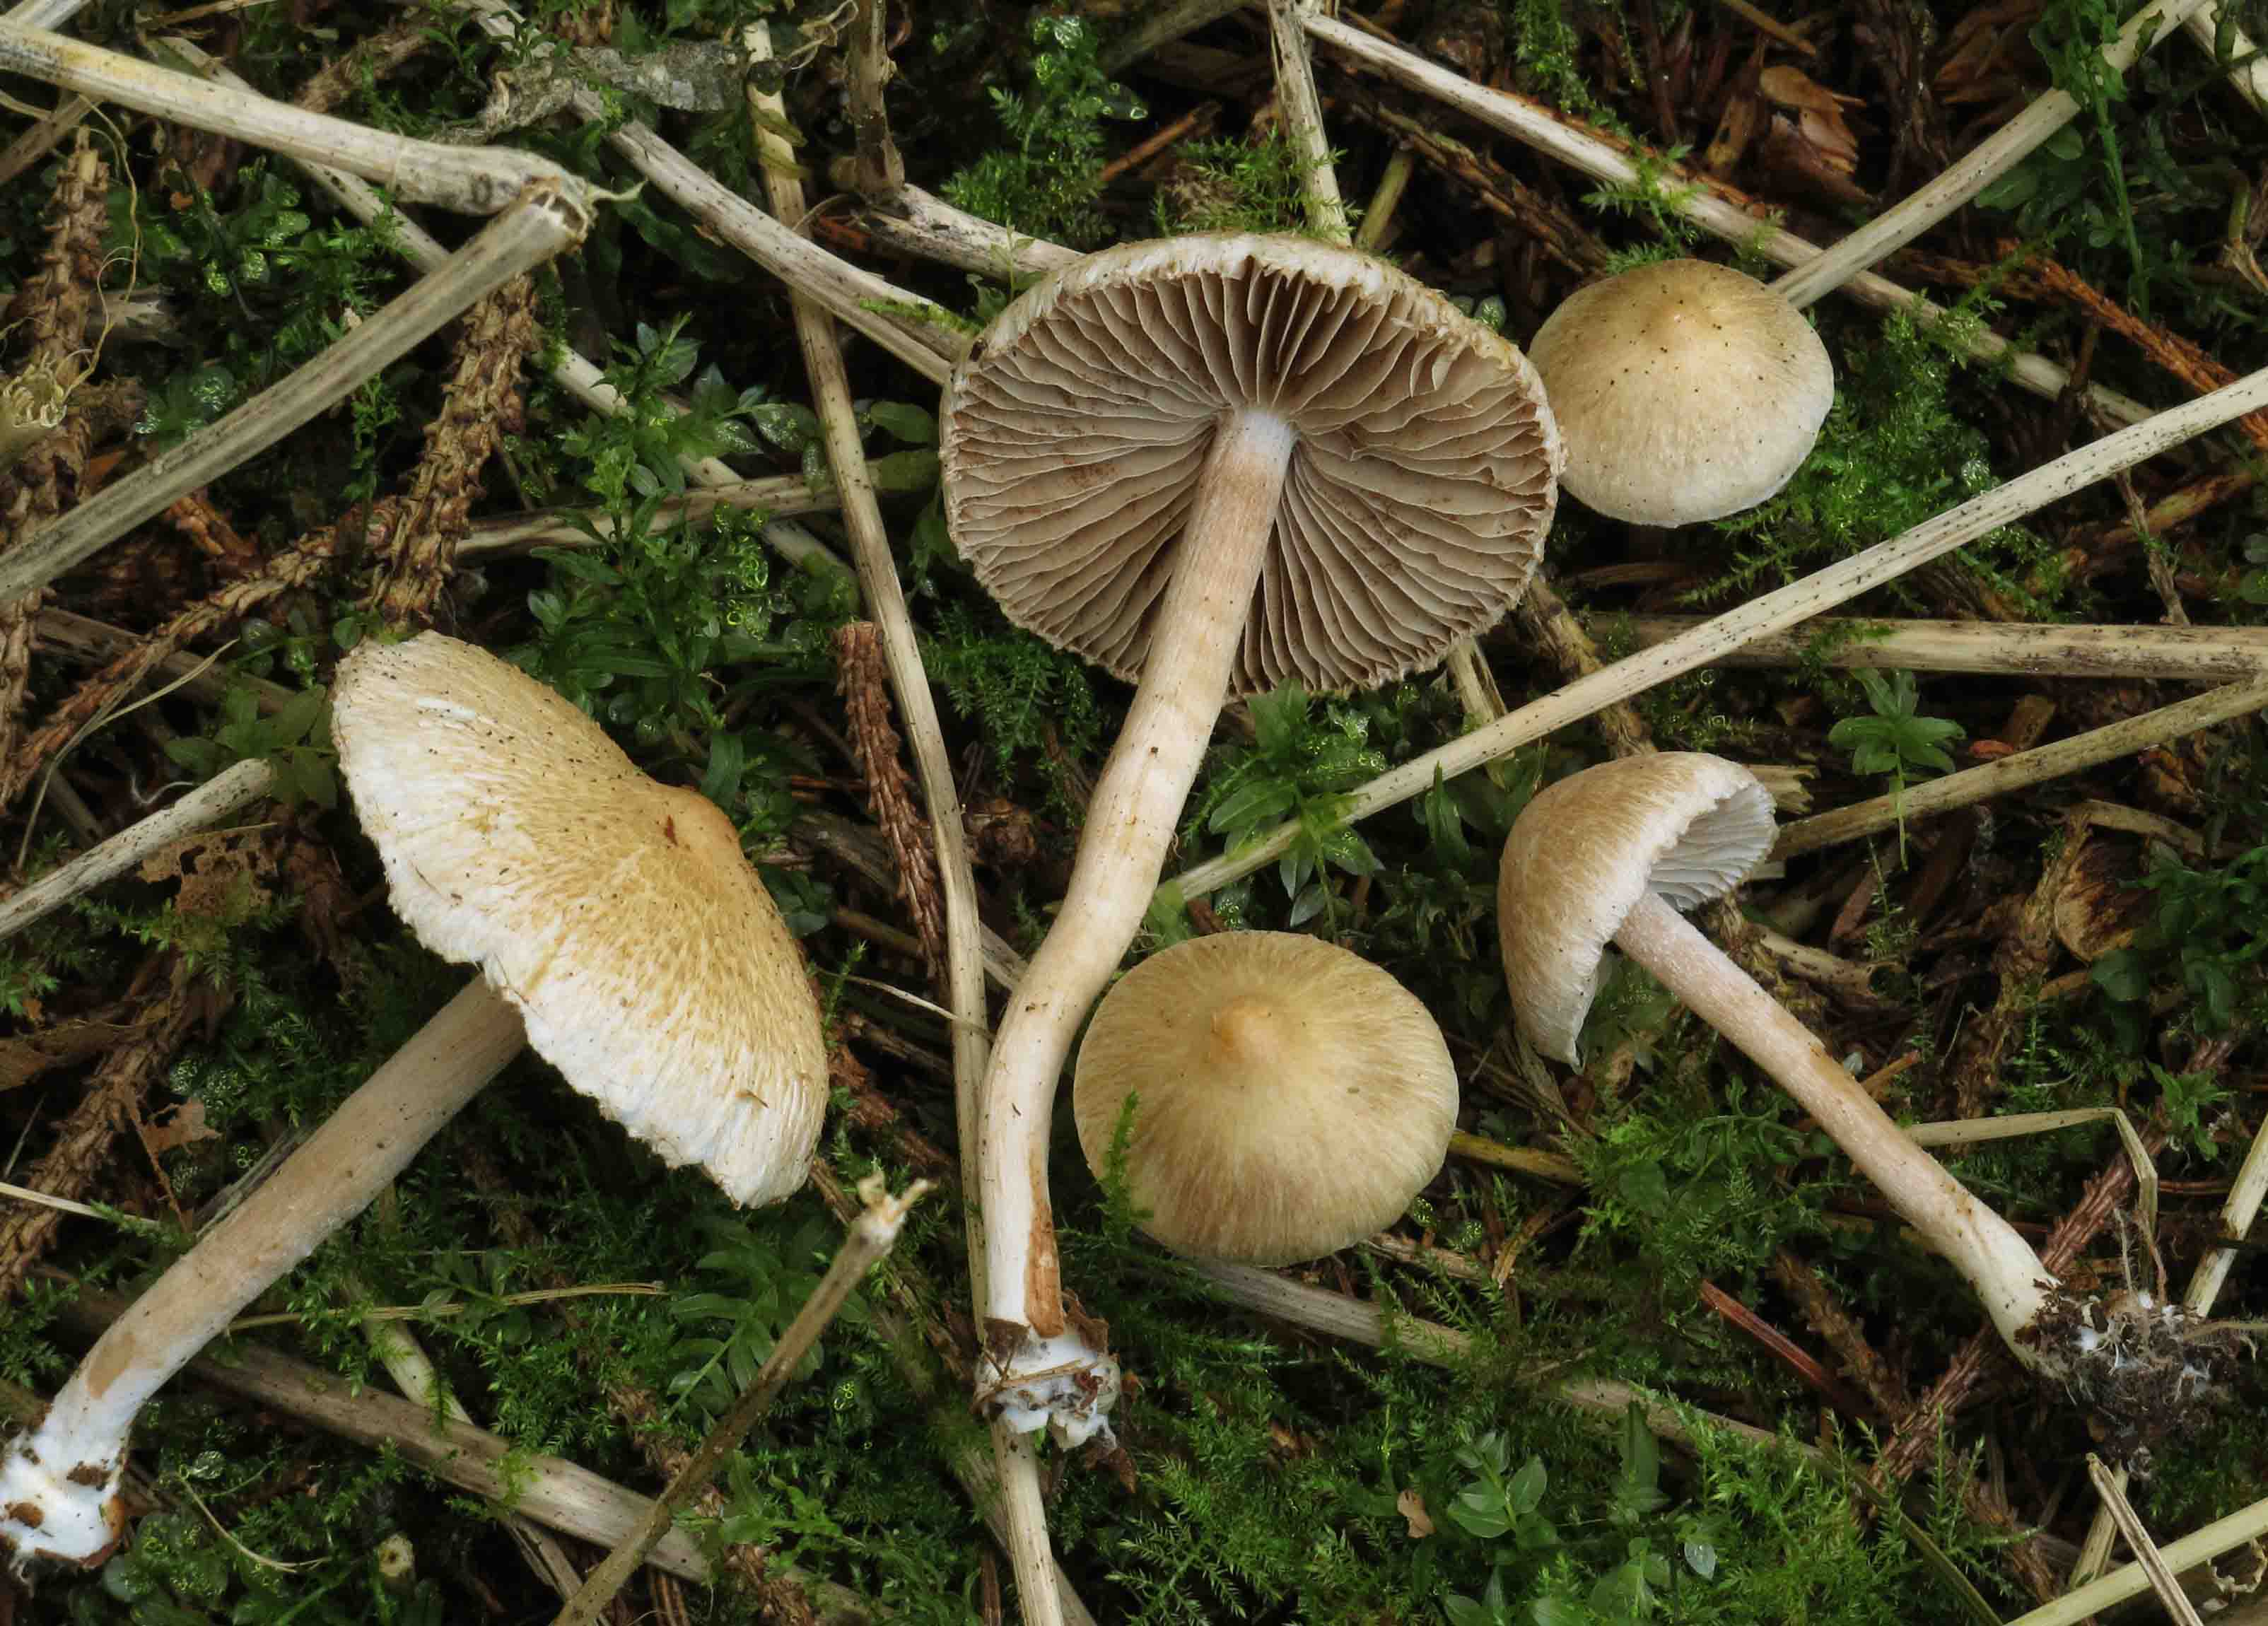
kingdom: Fungi
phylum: Basidiomycota
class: Agaricomycetes
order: Agaricales
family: Inocybaceae
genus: Inocybe
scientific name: Inocybe sindonia
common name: bleg trævlhat
